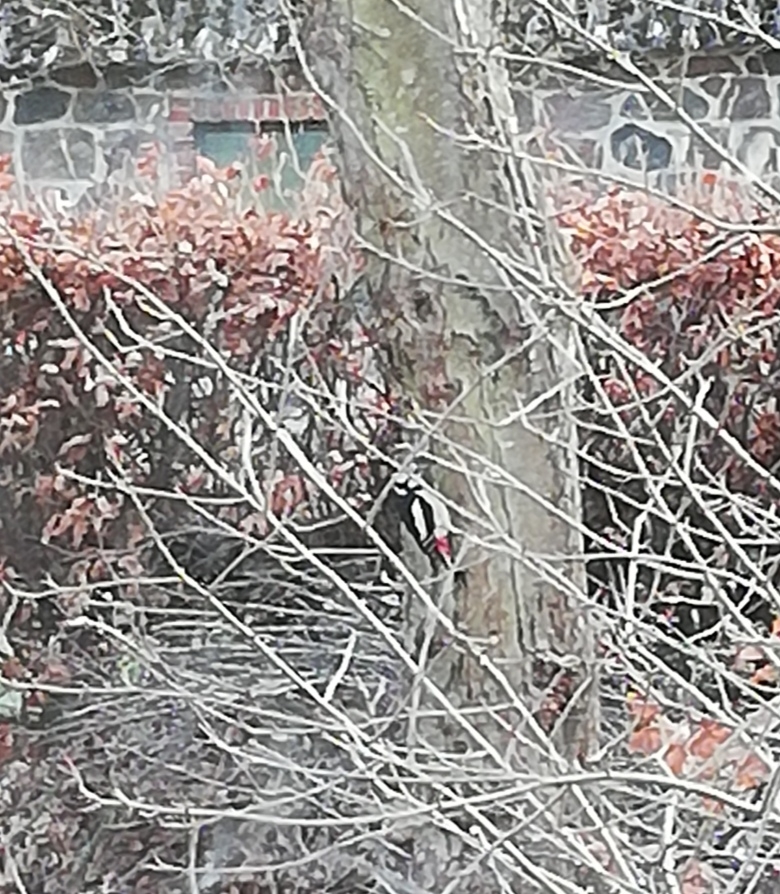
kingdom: Animalia
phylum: Chordata
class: Aves
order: Piciformes
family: Picidae
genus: Dendrocopos
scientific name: Dendrocopos major
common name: Stor flagspætte
